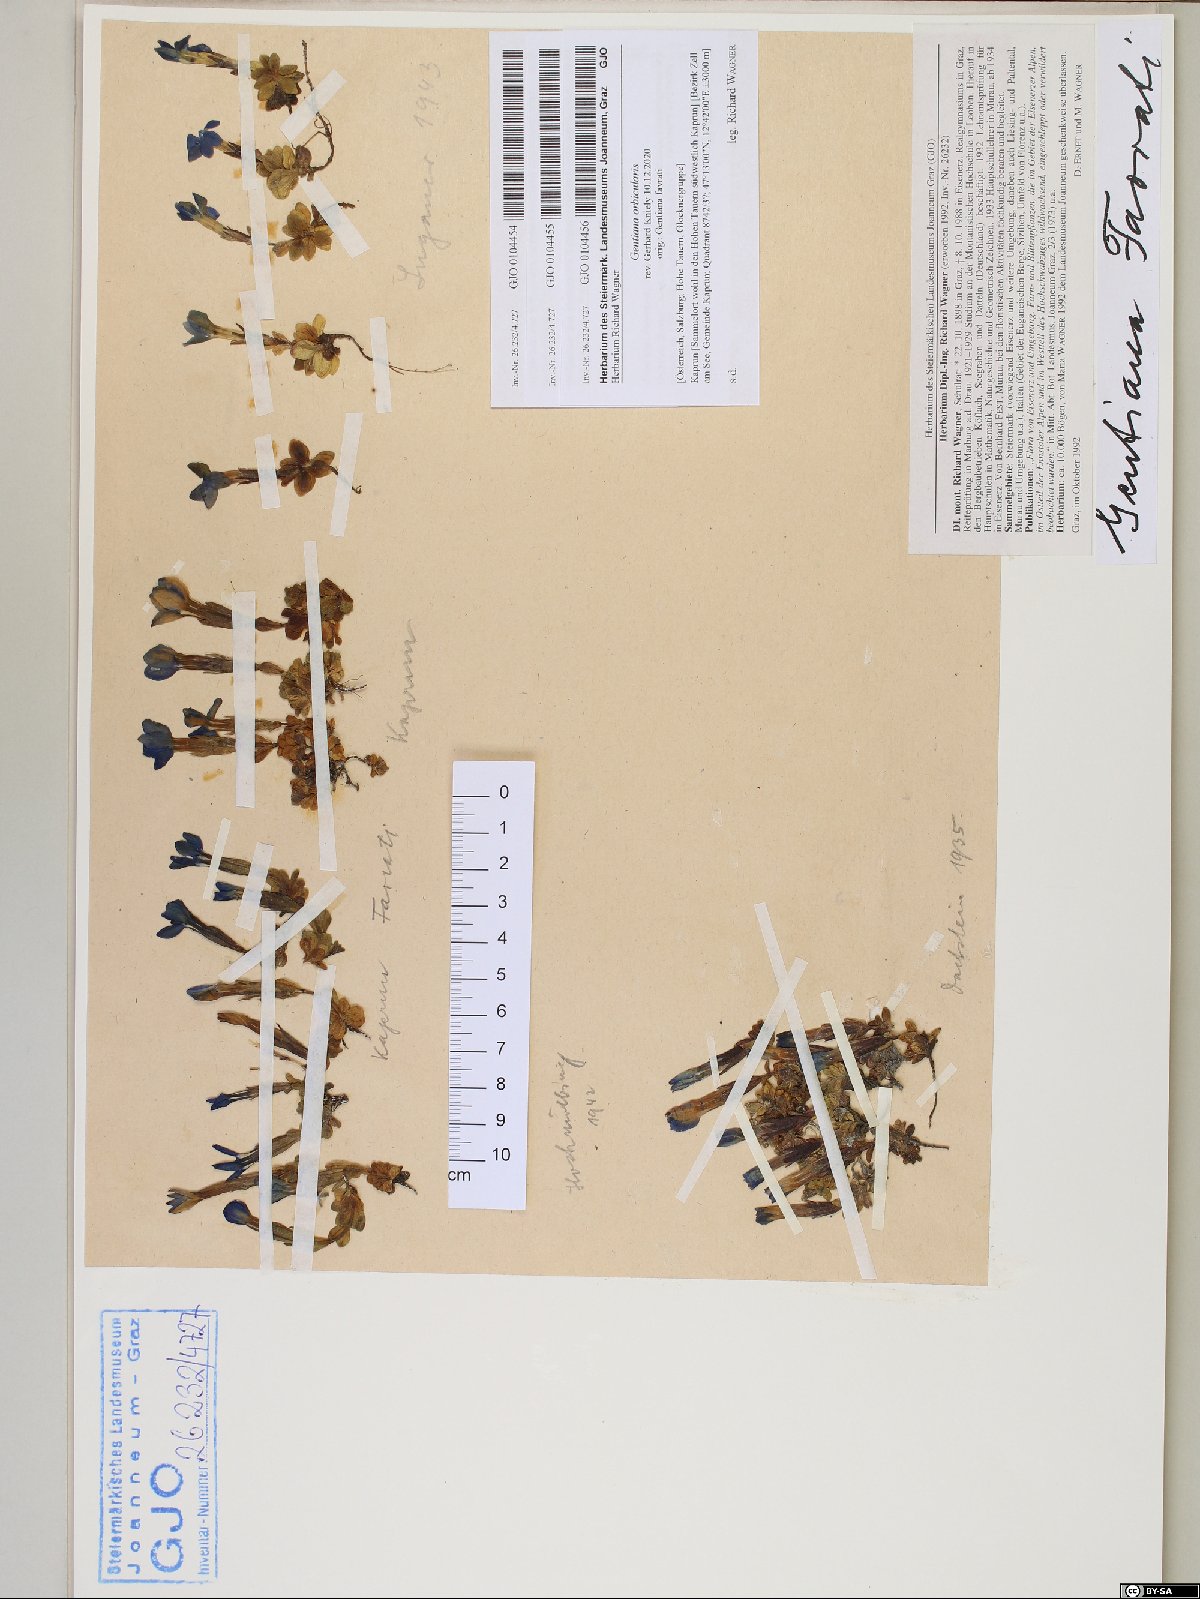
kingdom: Plantae
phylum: Tracheophyta
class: Magnoliopsida
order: Gentianales
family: Gentianaceae
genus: Gentiana
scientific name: Gentiana orbicularis
